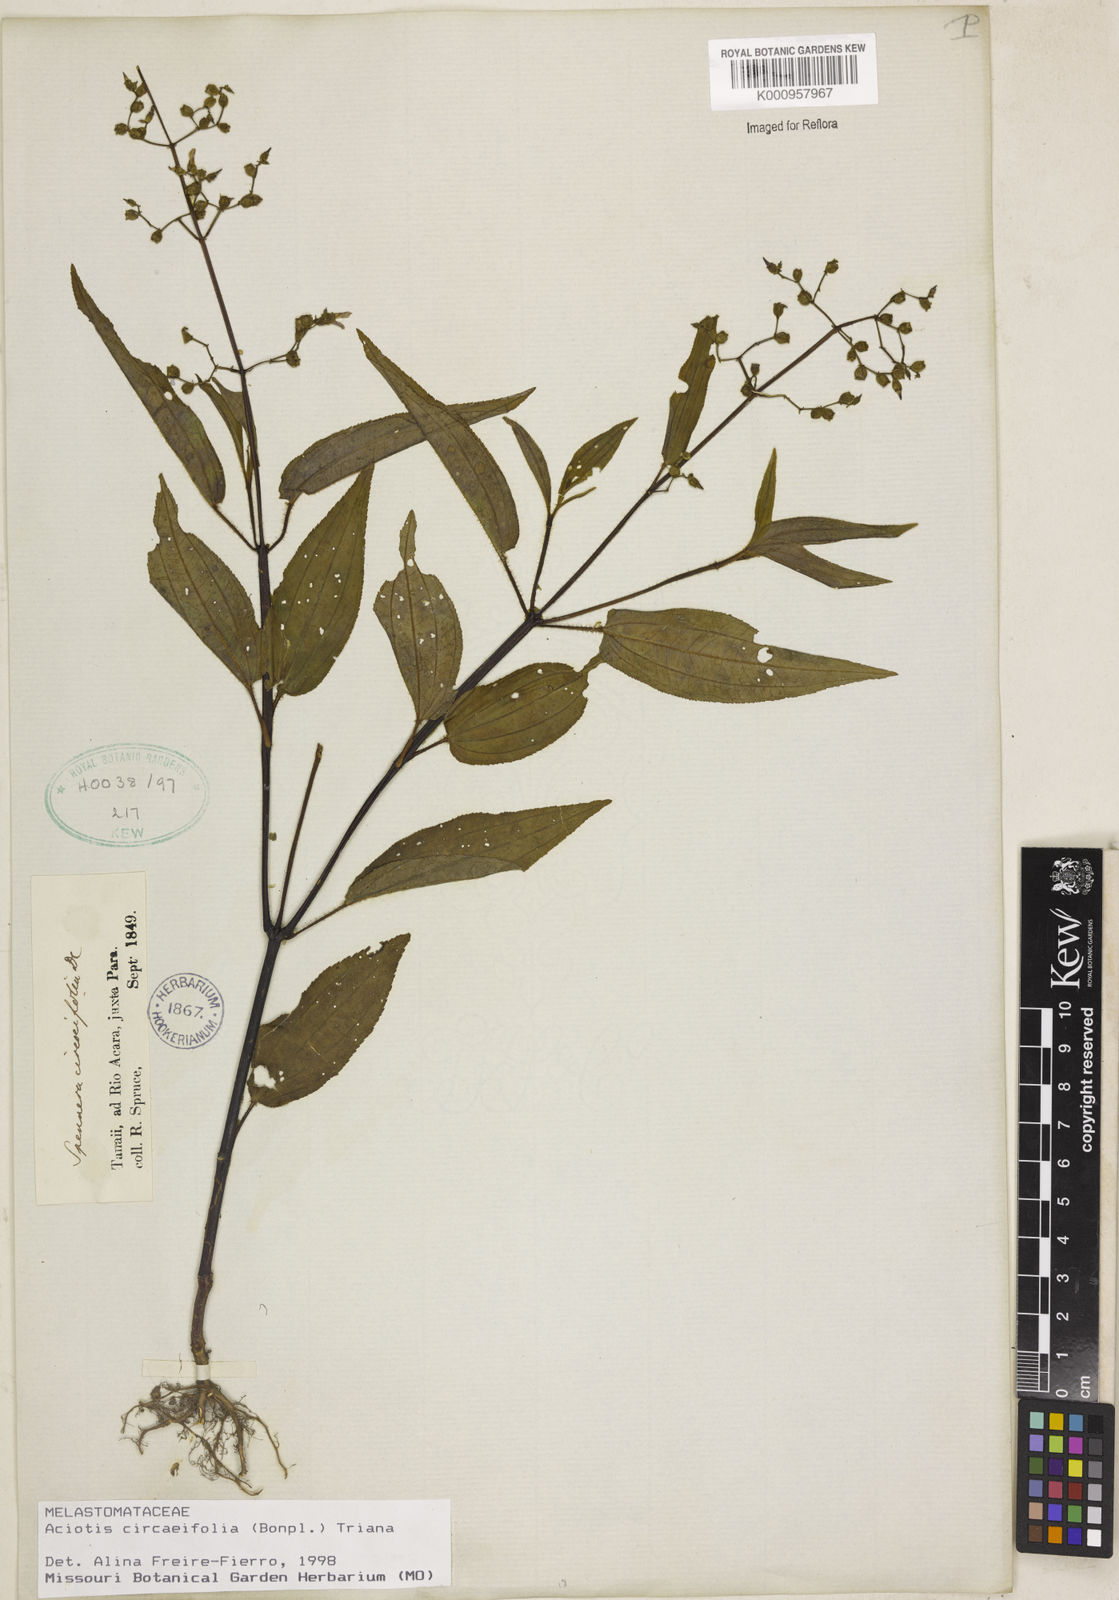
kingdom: Plantae
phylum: Tracheophyta
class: Magnoliopsida
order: Myrtales
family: Melastomataceae
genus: Aciotis
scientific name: Aciotis circaeifolia
